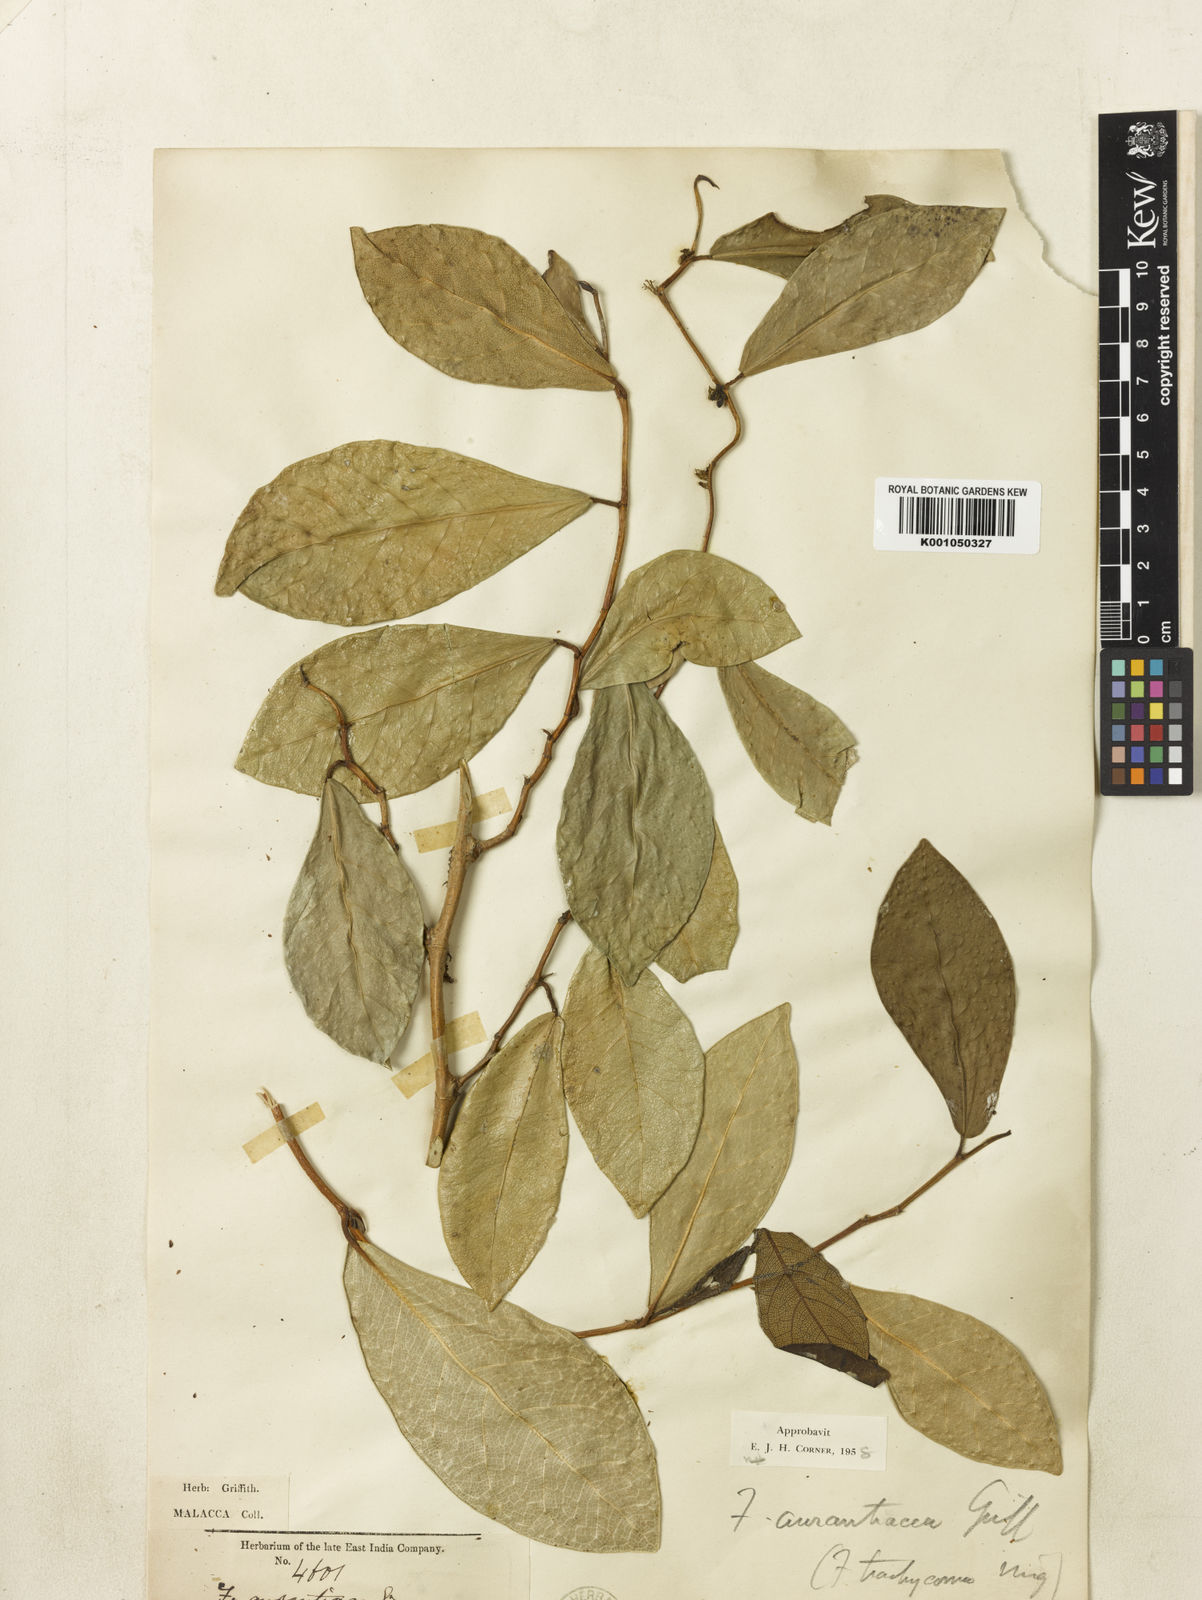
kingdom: Plantae
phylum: Tracheophyta
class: Magnoliopsida
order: Rosales
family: Moraceae
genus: Ficus
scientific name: Ficus
